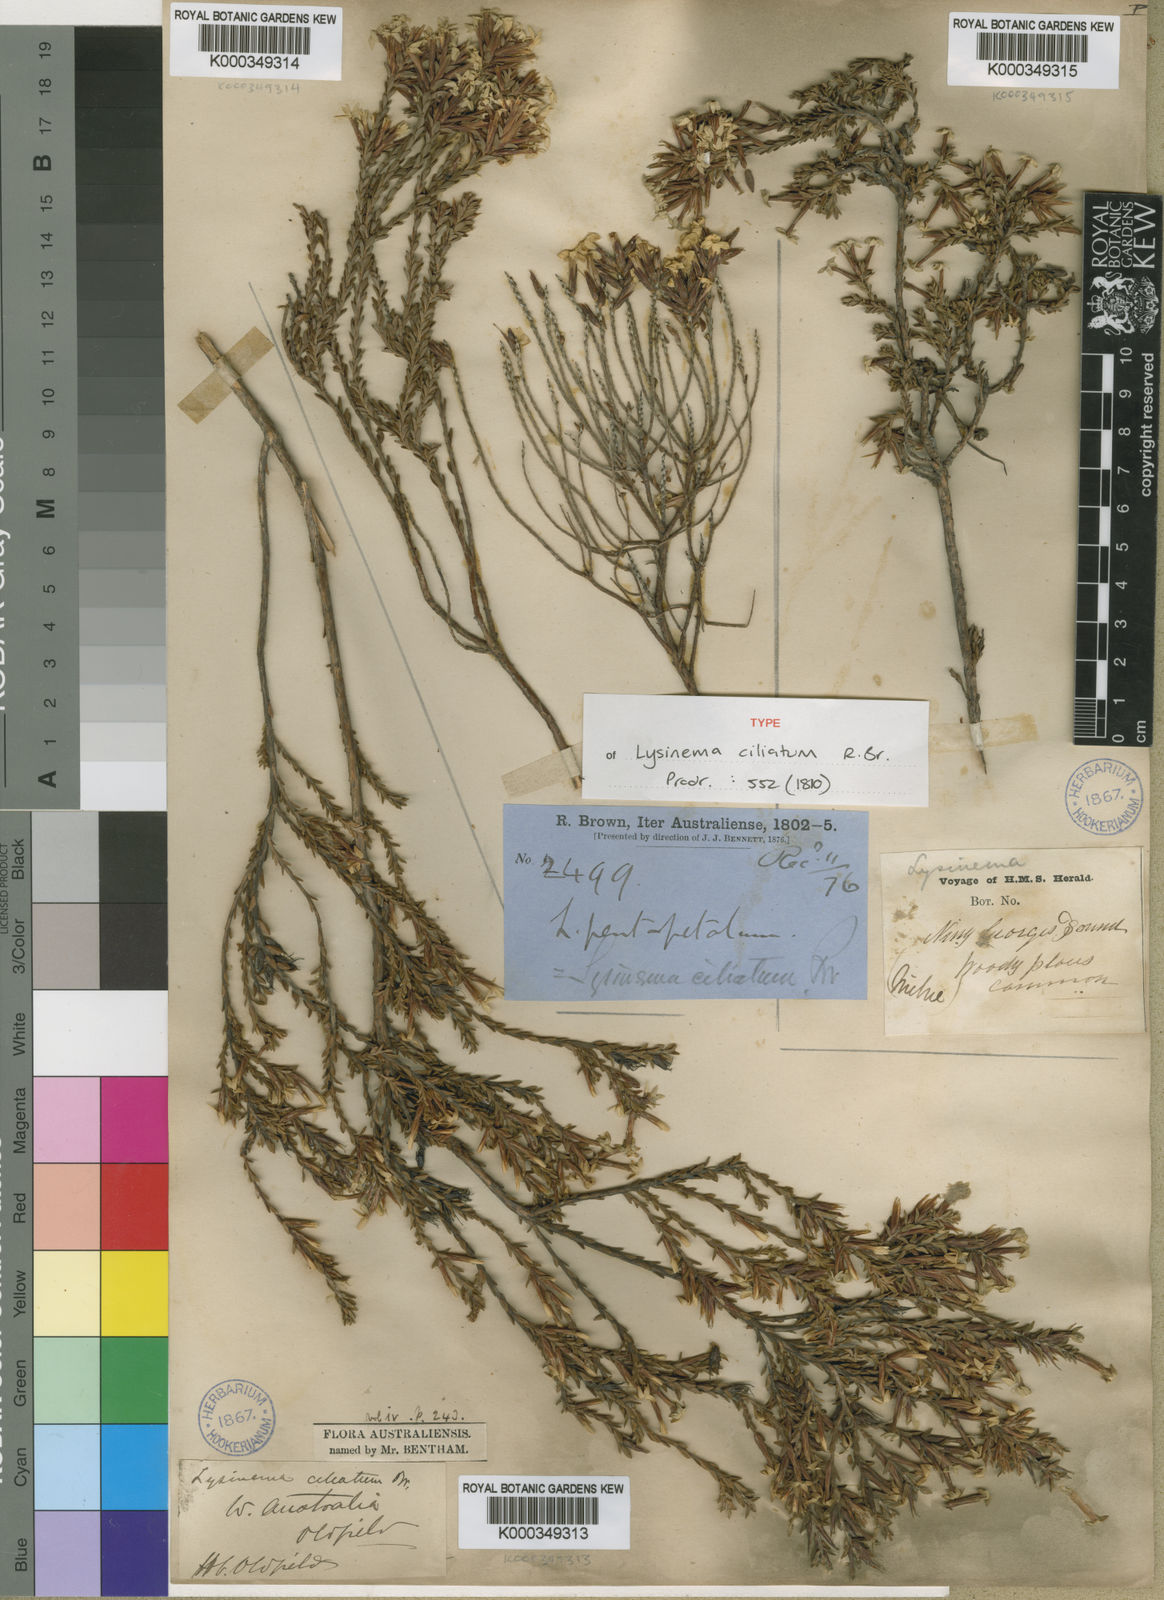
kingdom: Plantae
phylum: Tracheophyta
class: Magnoliopsida
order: Ericales
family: Ericaceae
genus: Lysinema
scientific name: Lysinema ciliatum
